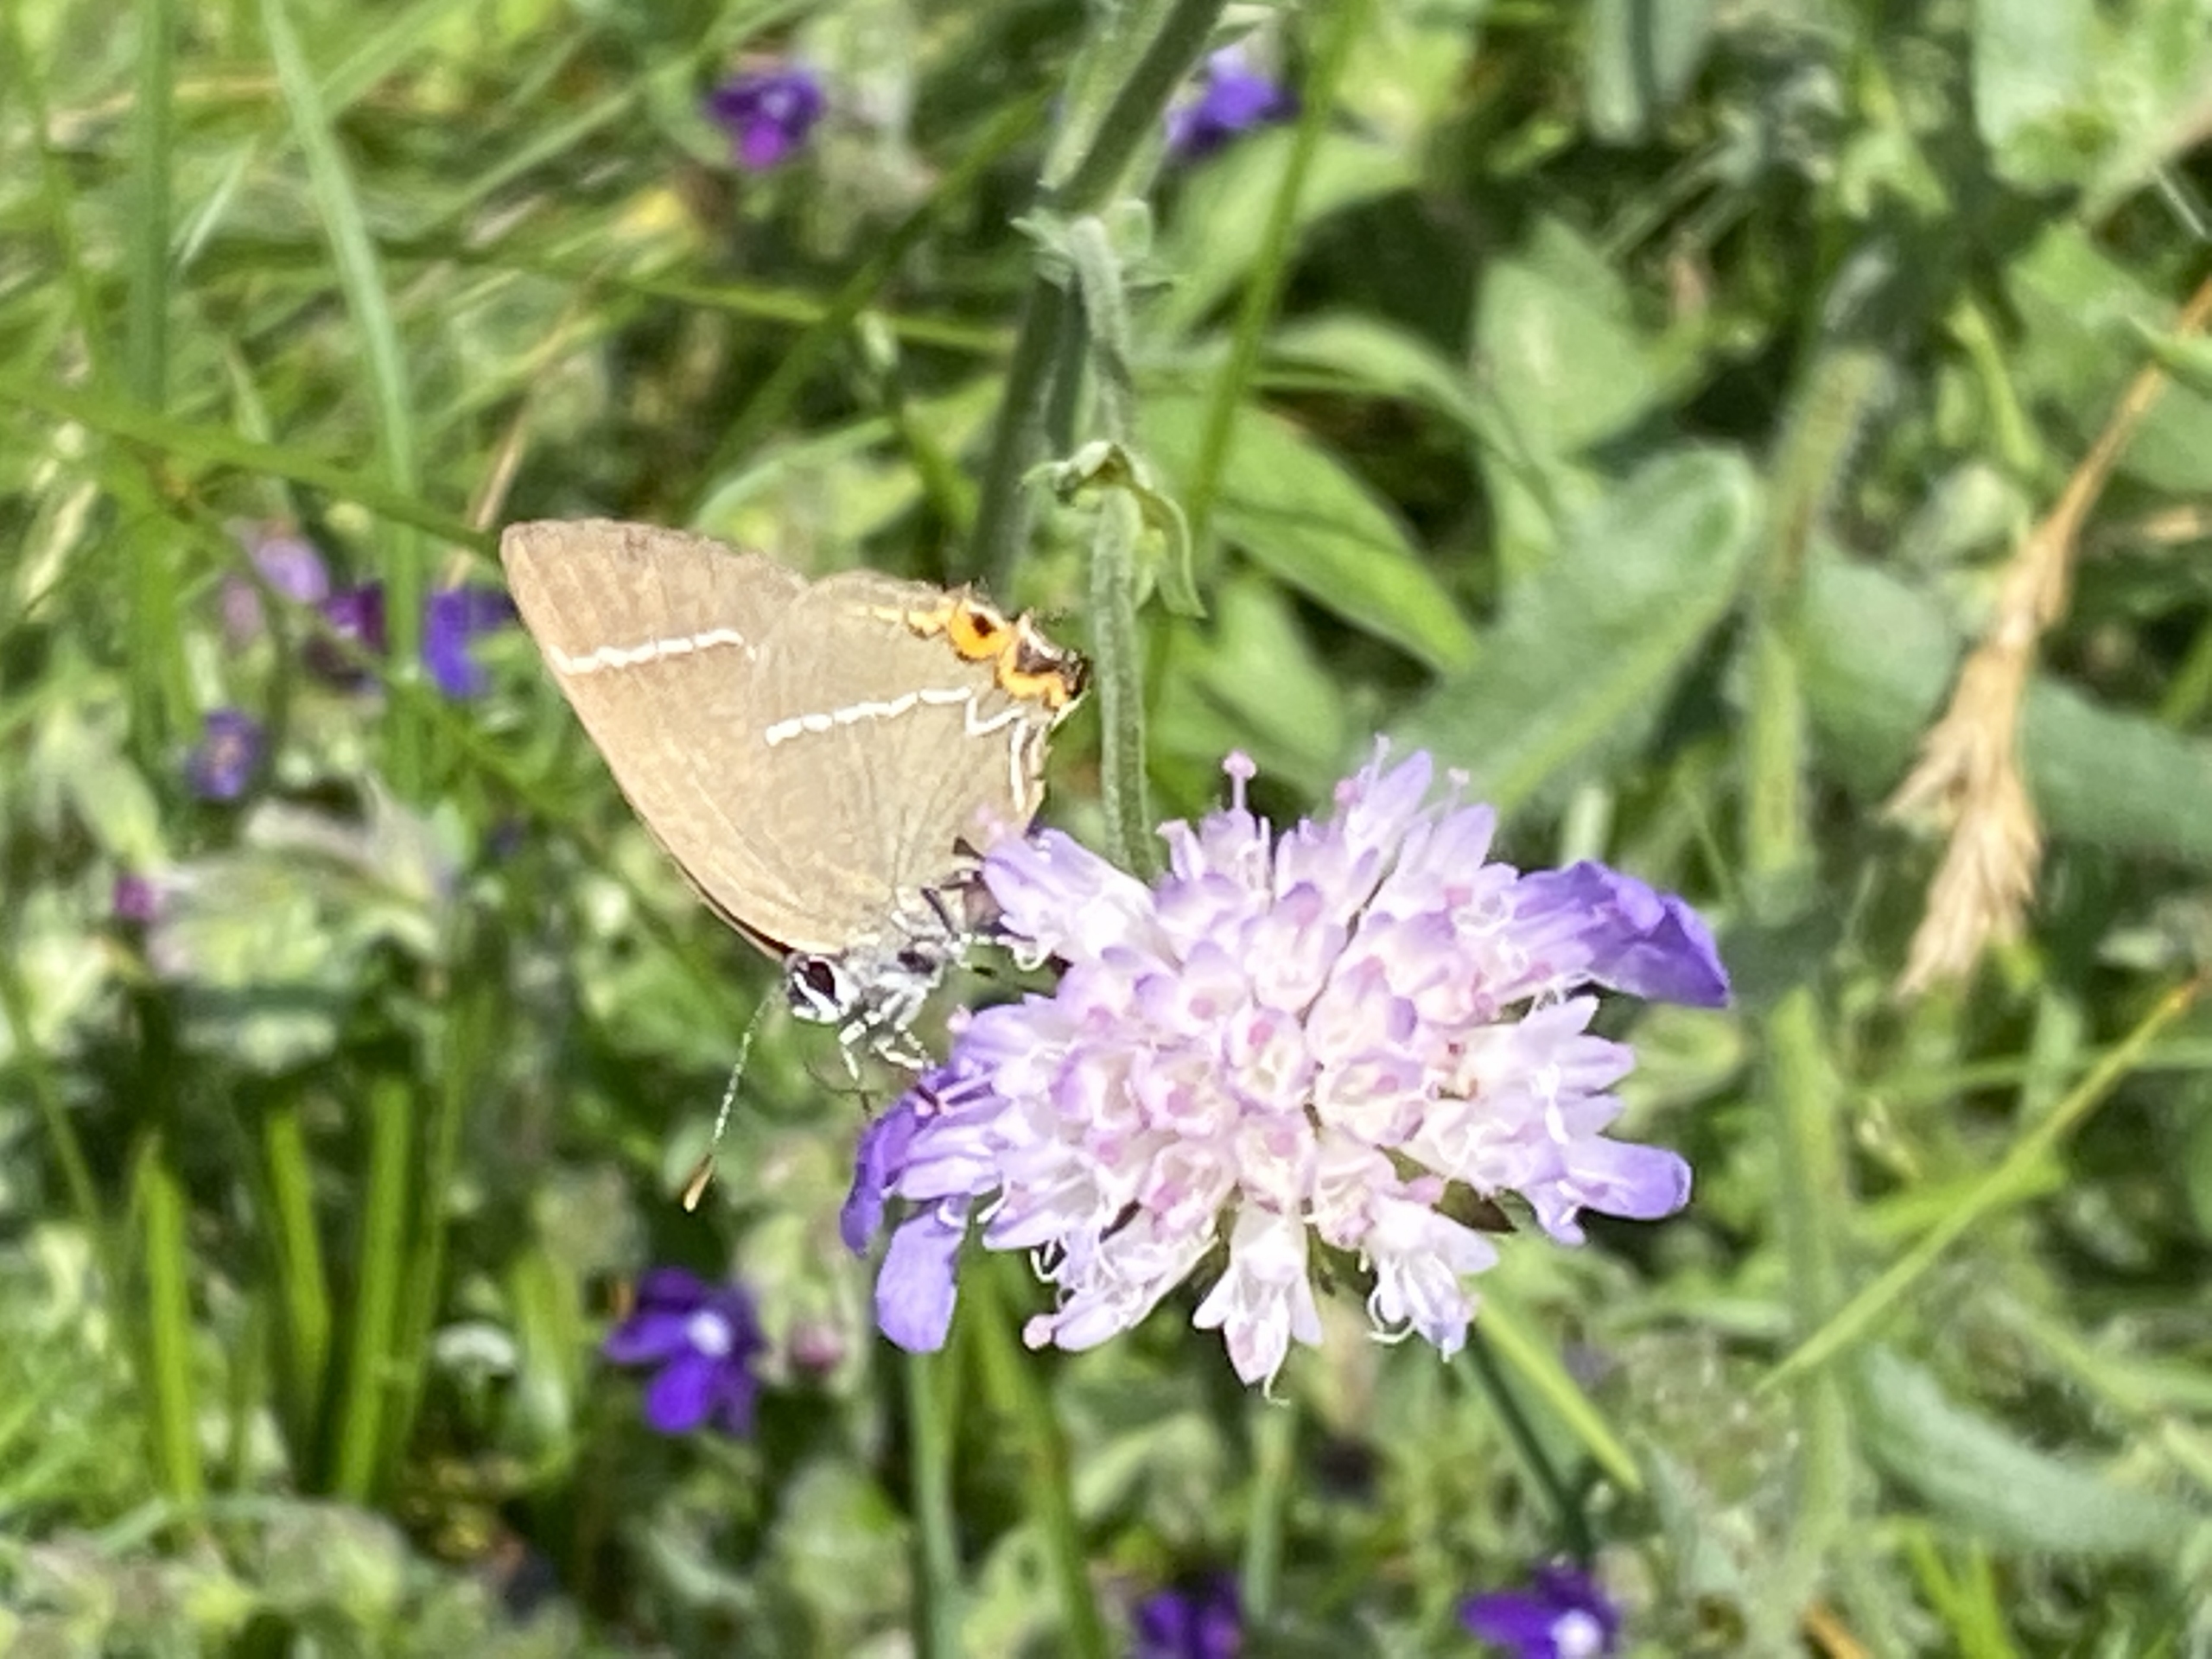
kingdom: Animalia
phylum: Arthropoda
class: Insecta
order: Lepidoptera
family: Lycaenidae
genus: Satyrium
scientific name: Satyrium w-album
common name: Det hvide W
